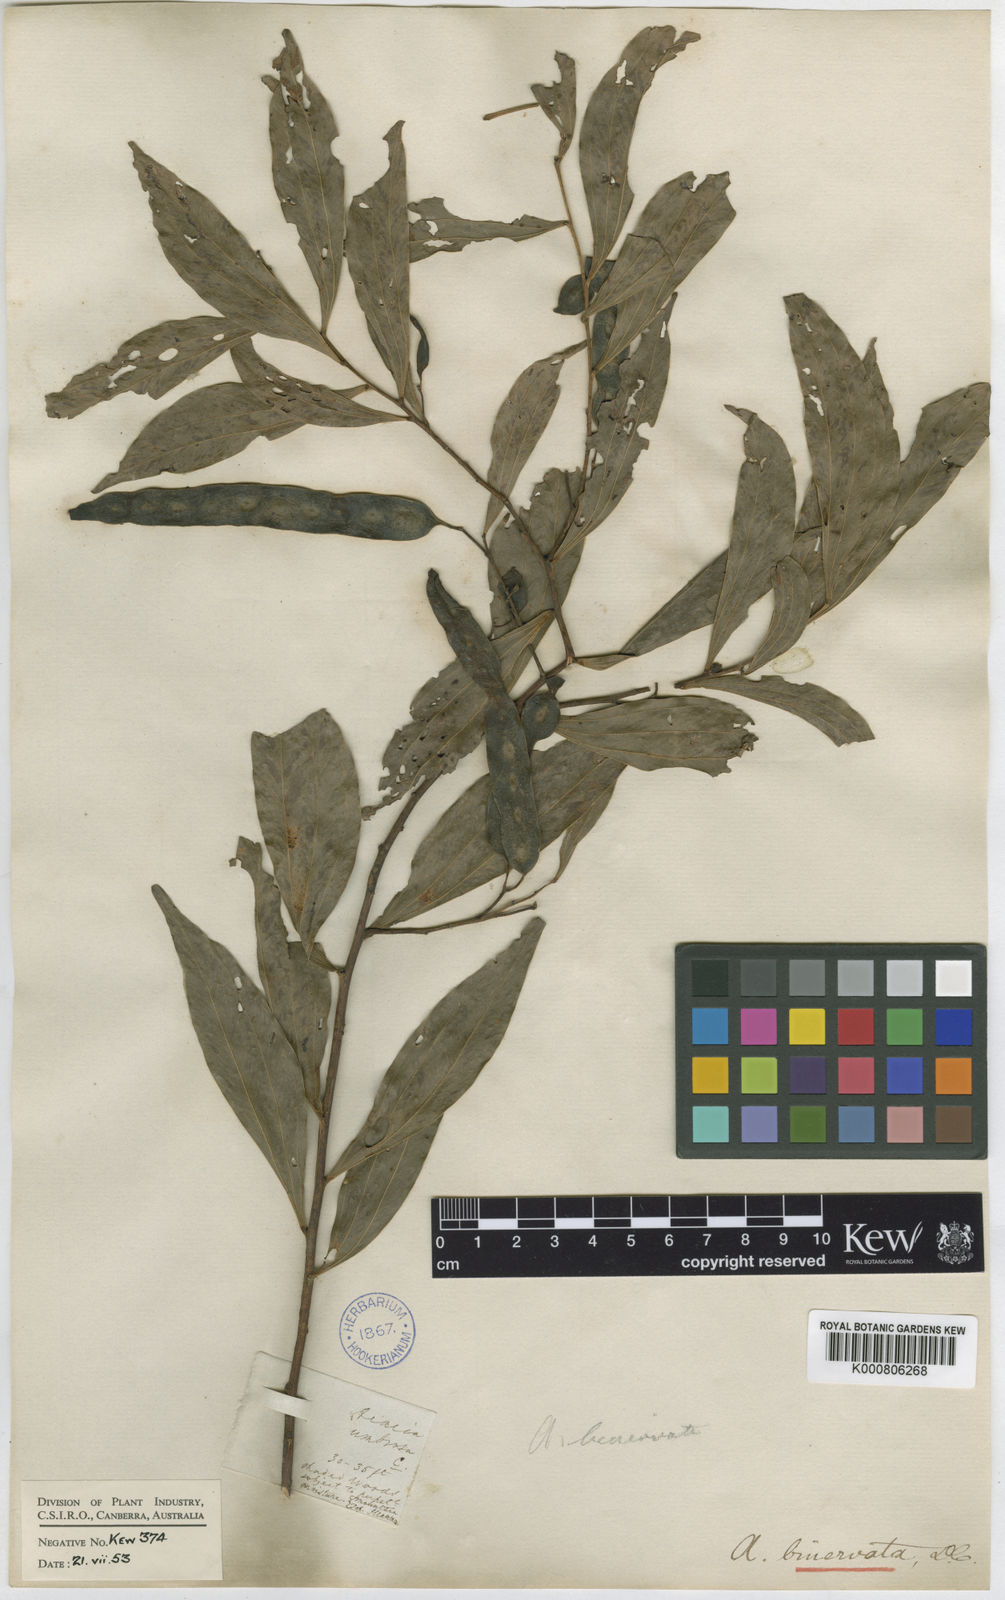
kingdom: Plantae
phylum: Tracheophyta
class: Magnoliopsida
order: Fabales
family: Fabaceae
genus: Acacia
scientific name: Acacia binervata
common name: Two-veined hickory
